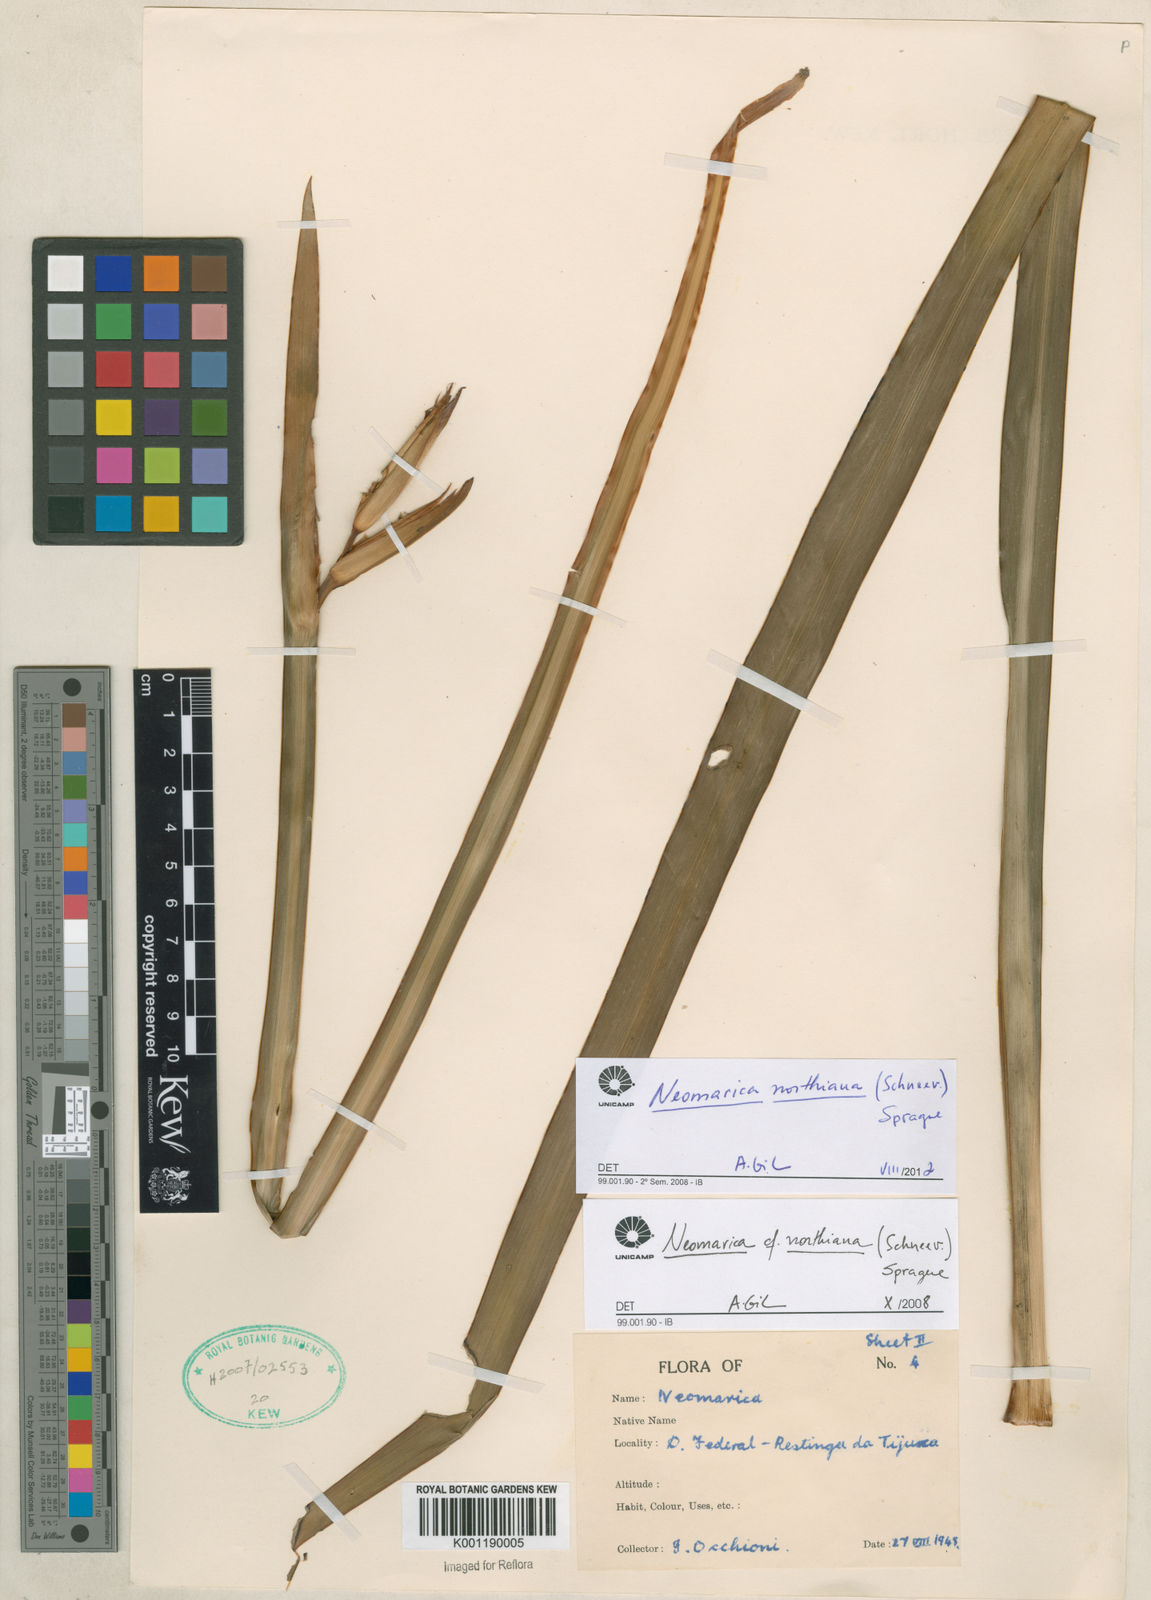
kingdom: Plantae
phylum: Tracheophyta
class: Liliopsida
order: Asparagales
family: Iridaceae
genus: Trimezia
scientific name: Trimezia northiana
